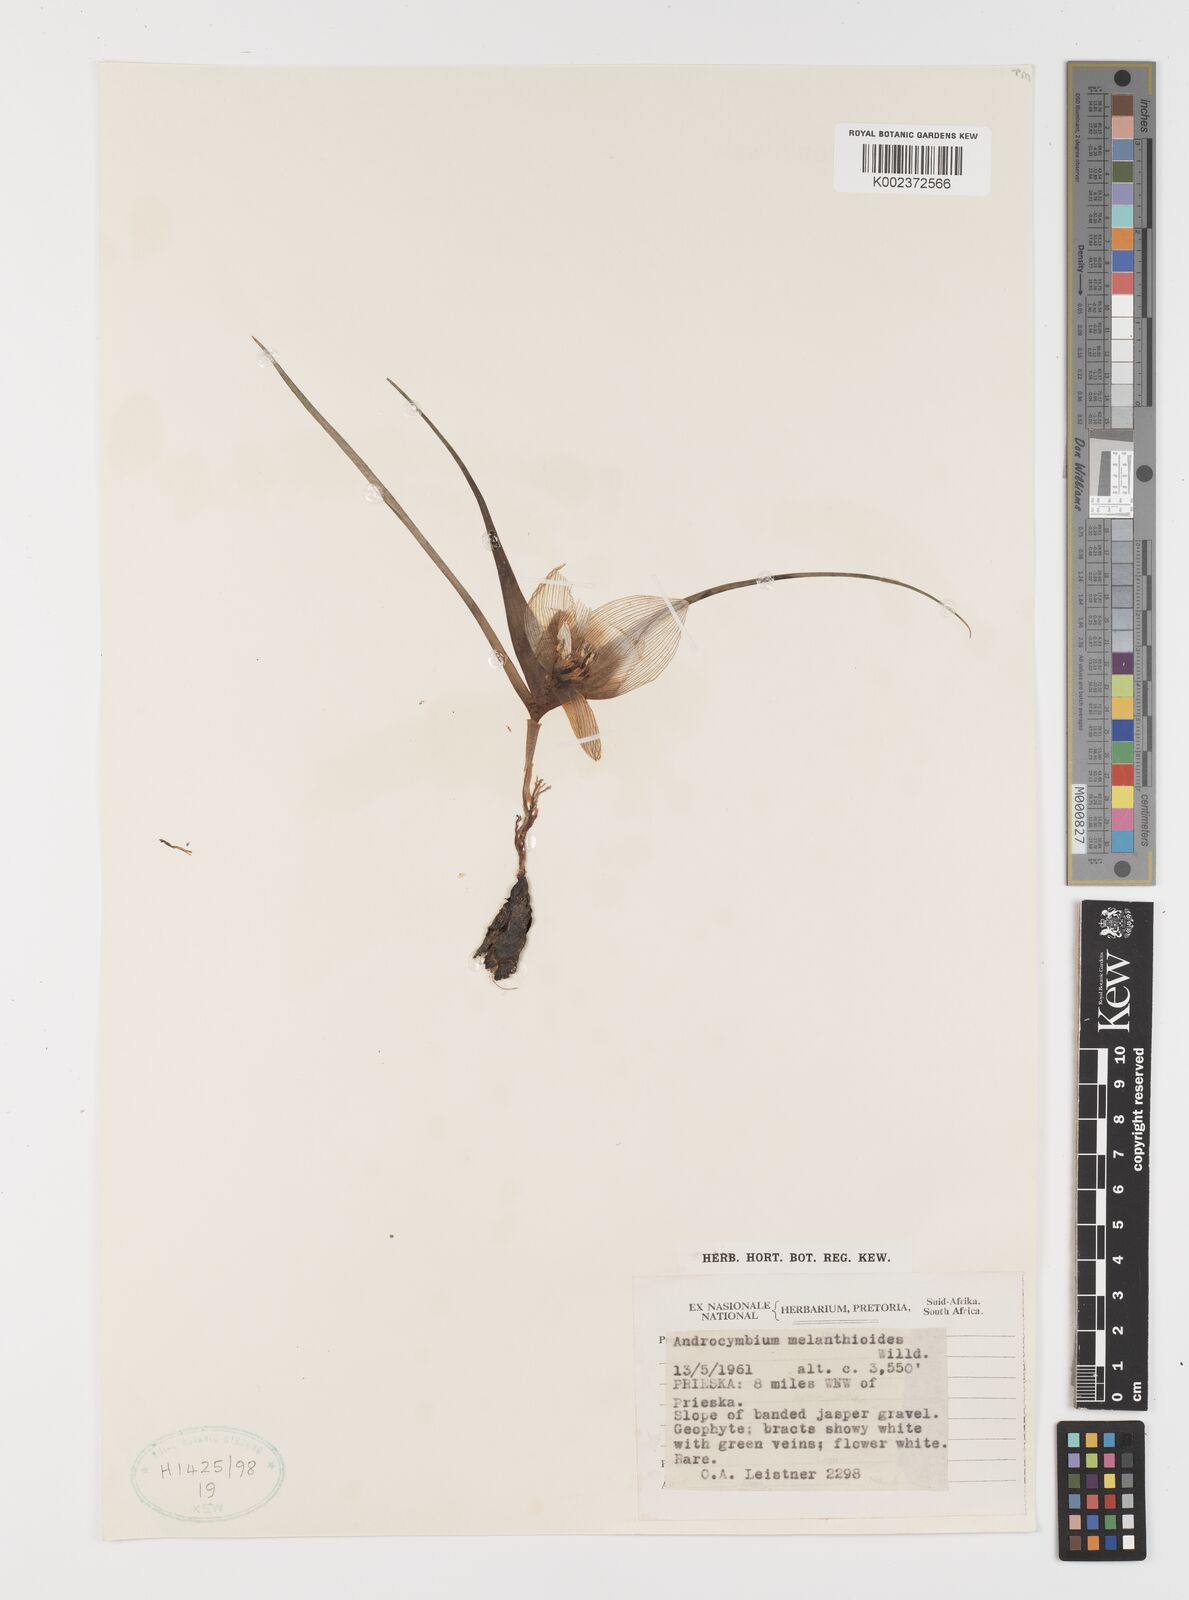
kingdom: Plantae
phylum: Tracheophyta
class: Liliopsida
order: Liliales
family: Colchicaceae
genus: Colchicum
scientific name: Colchicum melanthioides
